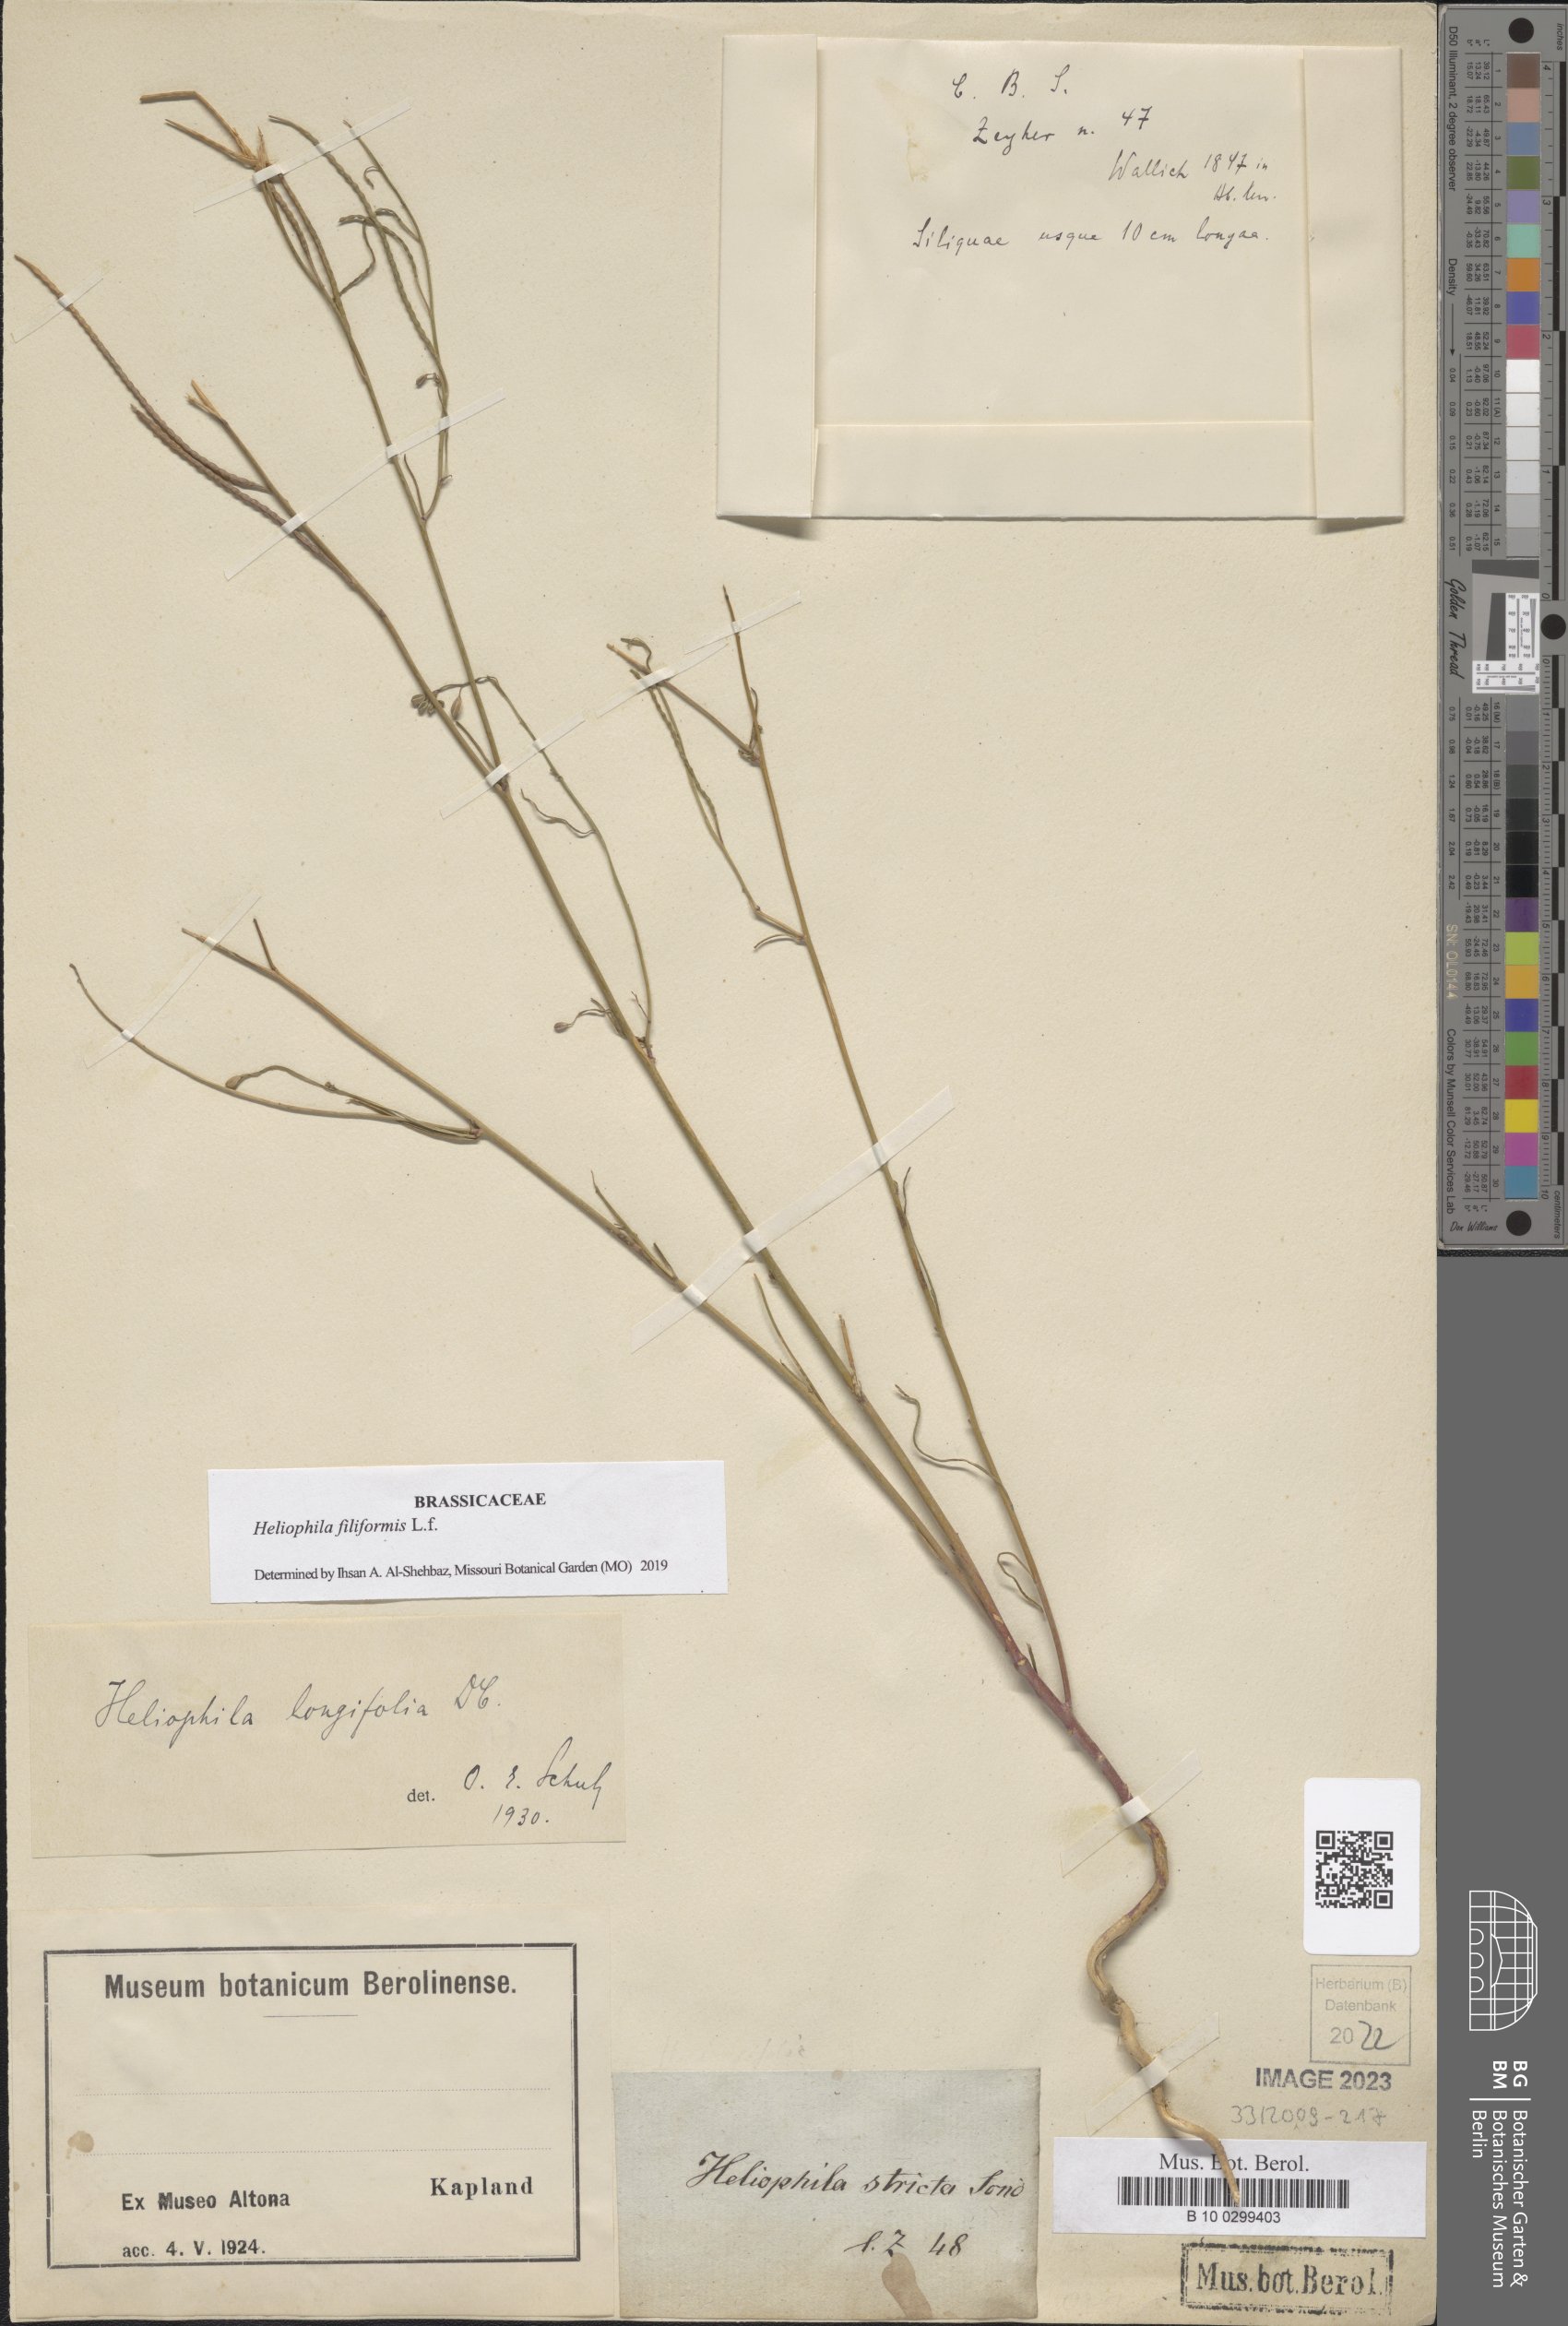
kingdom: Plantae
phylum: Tracheophyta
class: Magnoliopsida
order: Brassicales
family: Brassicaceae
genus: Heliophila
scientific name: Heliophila coronopifolia
